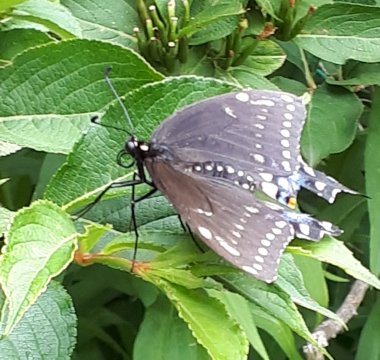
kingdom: Animalia
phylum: Arthropoda
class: Insecta
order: Lepidoptera
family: Papilionidae
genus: Papilio
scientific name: Papilio polyxenes
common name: Black Swallowtail
